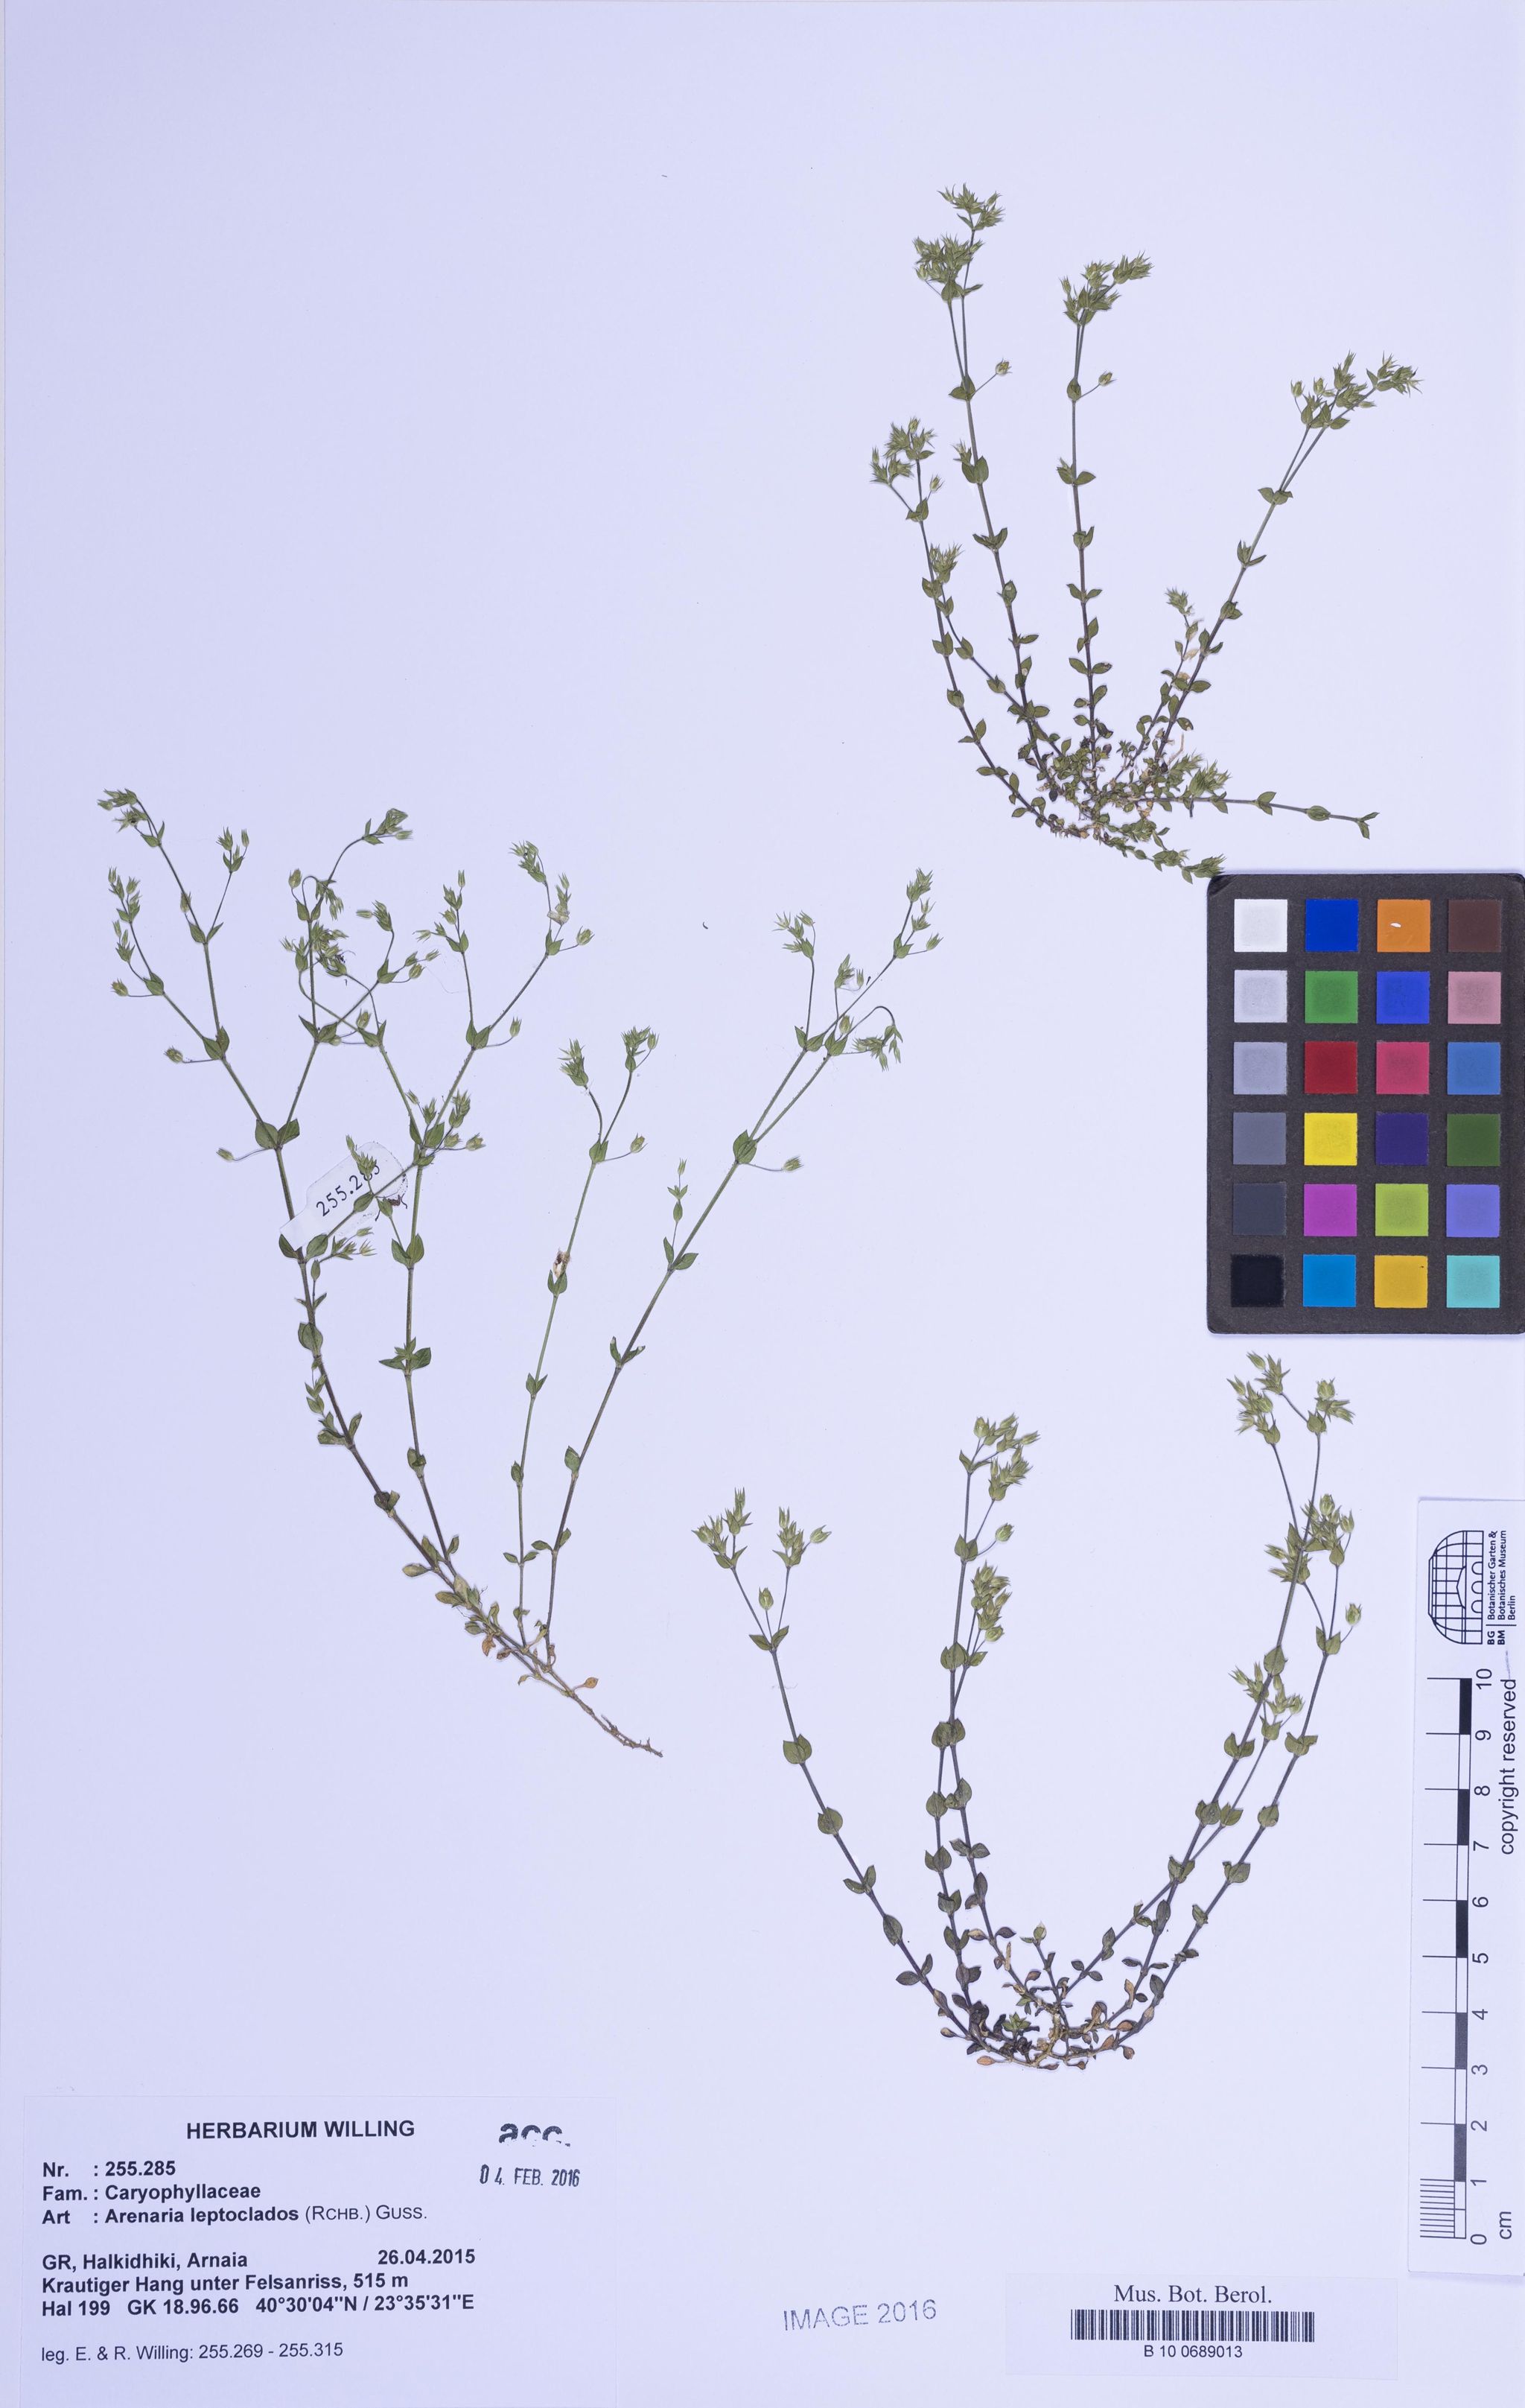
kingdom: Plantae
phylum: Tracheophyta
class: Magnoliopsida
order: Caryophyllales
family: Caryophyllaceae
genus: Arenaria
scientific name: Arenaria leptoclados
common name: Thyme-leaved sandwort
